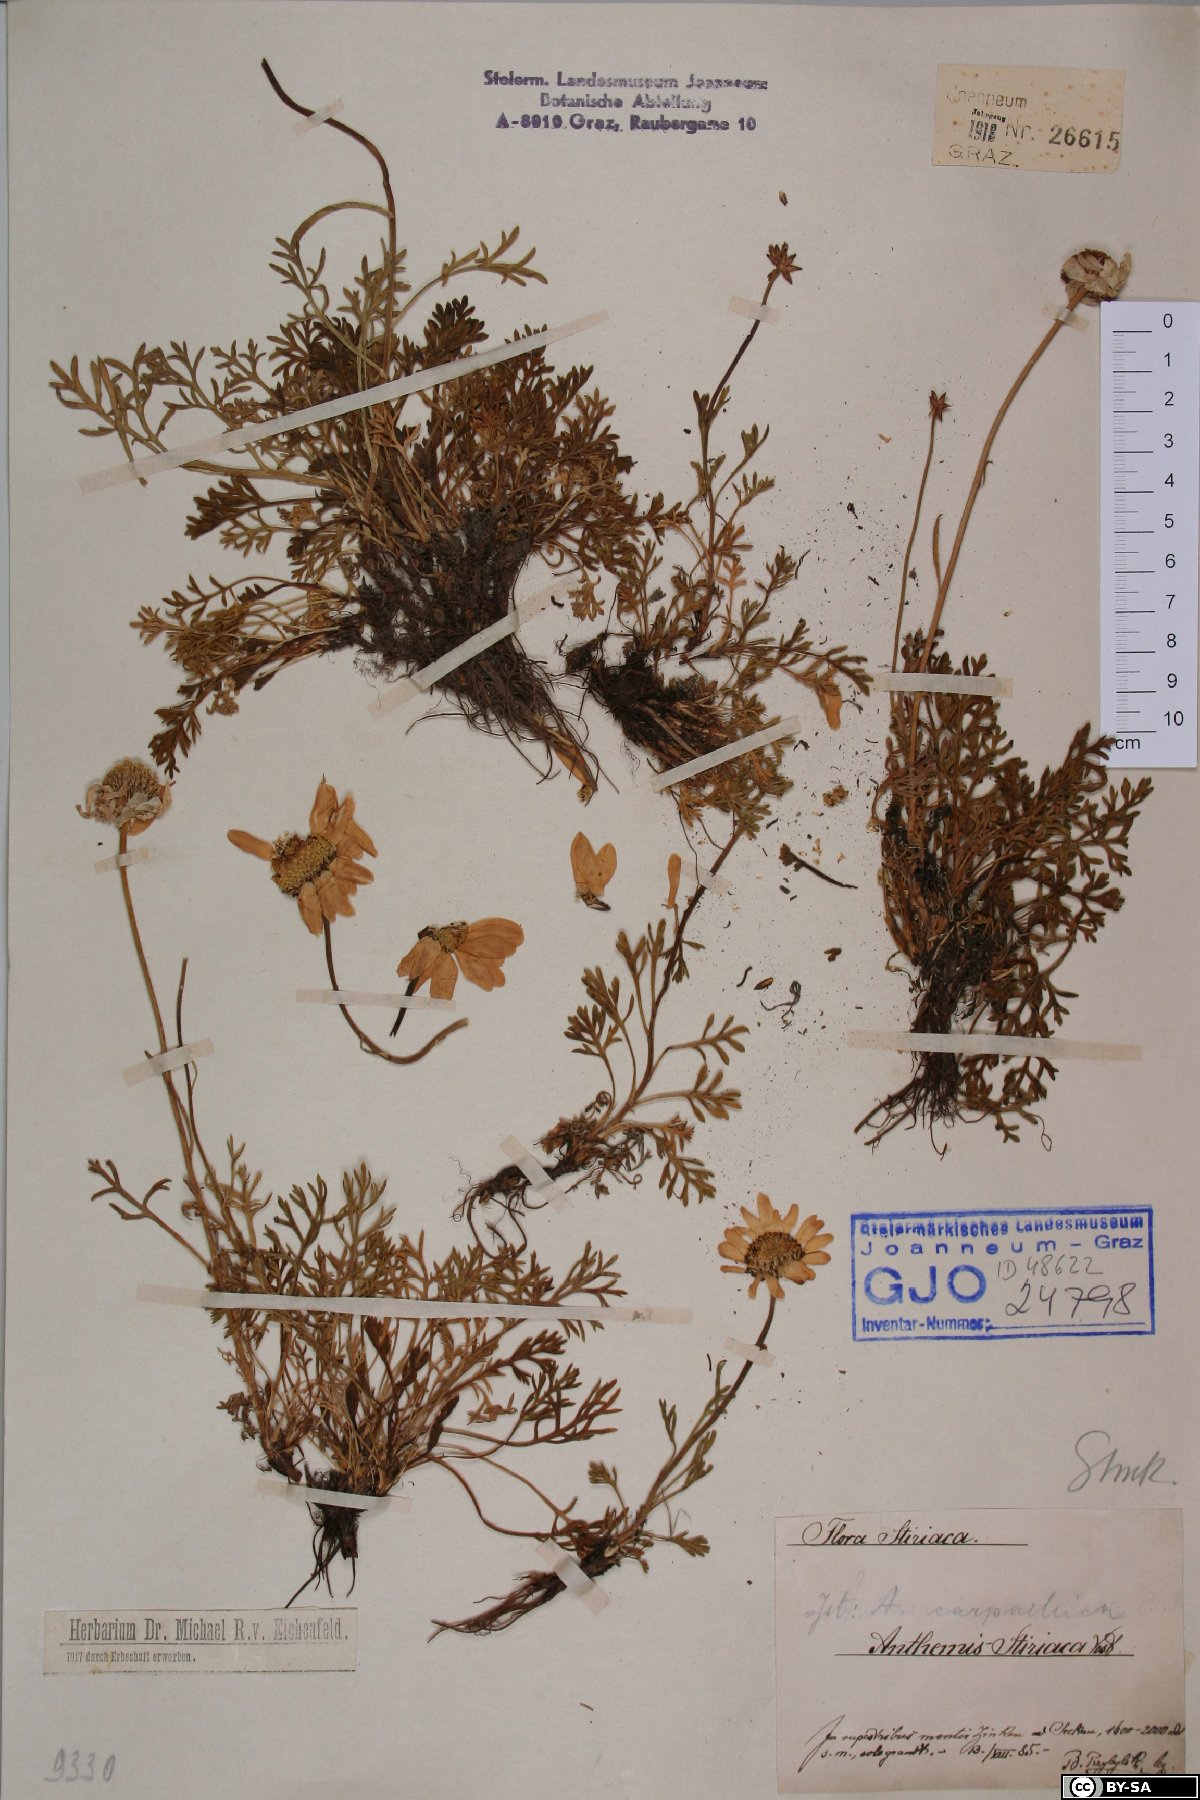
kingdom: Plantae
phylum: Tracheophyta
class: Magnoliopsida
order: Asterales
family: Asteraceae
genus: Anthemis
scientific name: Anthemis cretica
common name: Mountain dog-daisy
